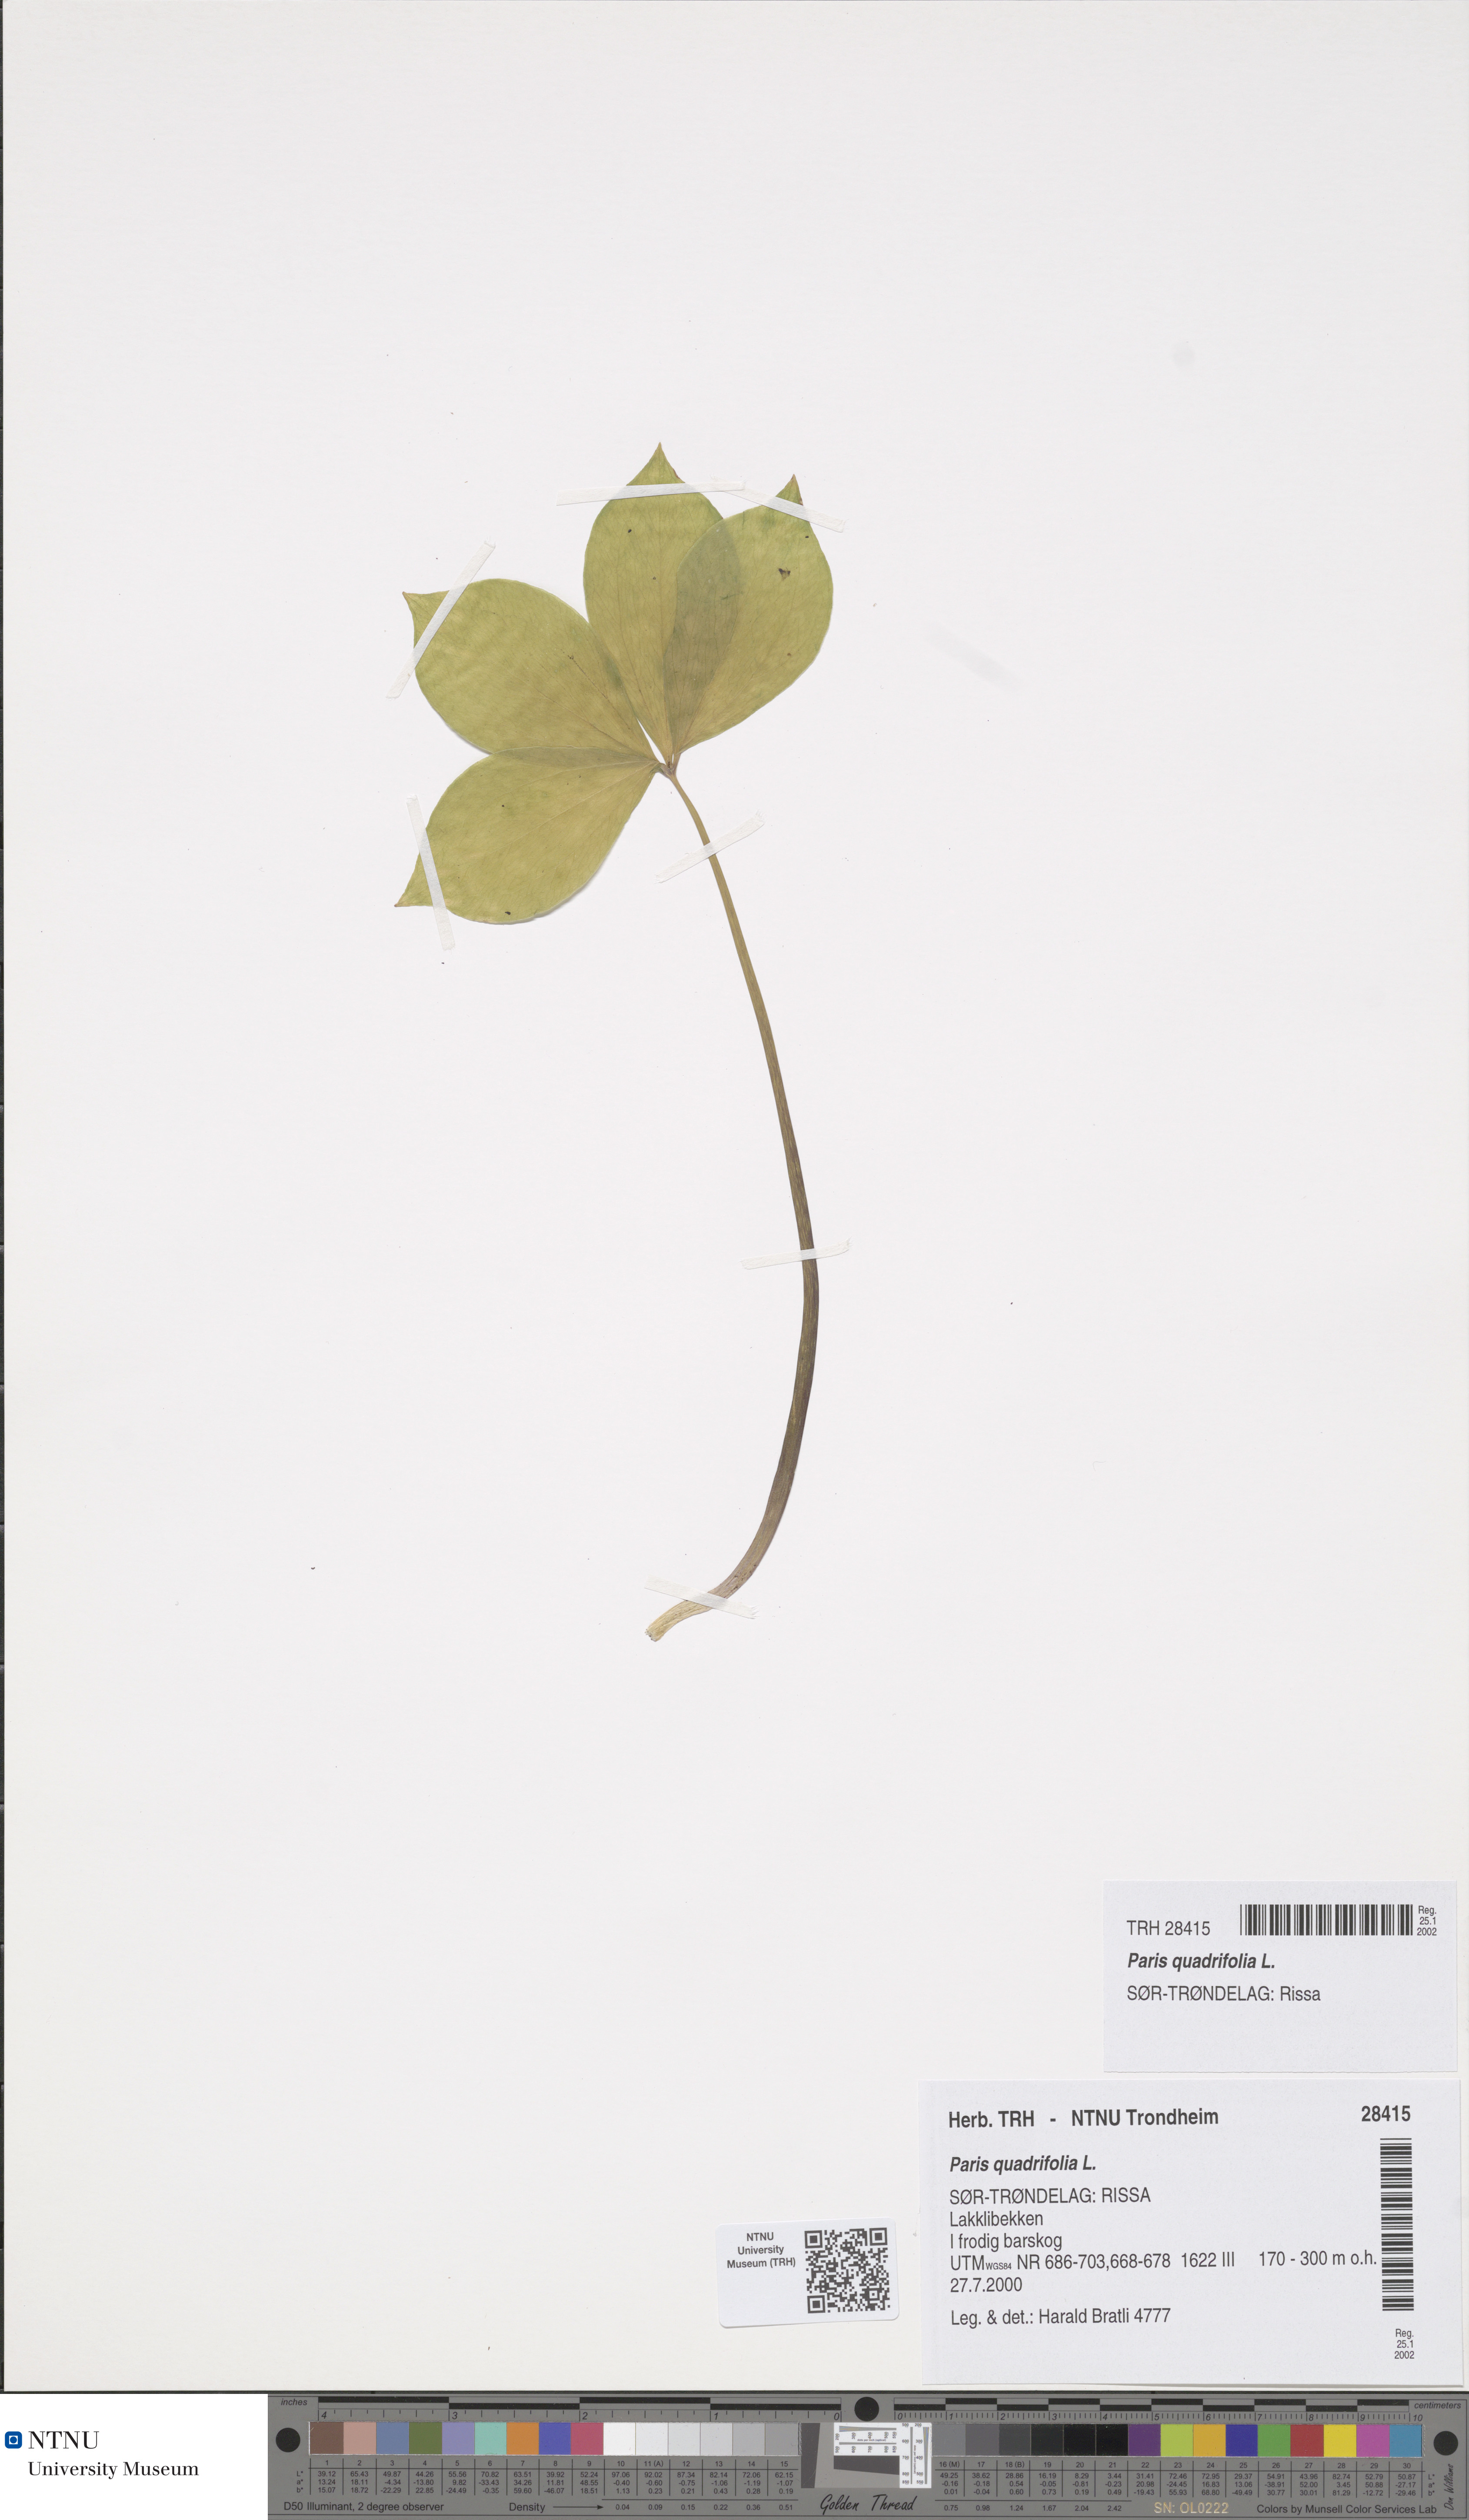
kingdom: Plantae
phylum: Tracheophyta
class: Liliopsida
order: Liliales
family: Melanthiaceae
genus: Paris
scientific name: Paris quadrifolia
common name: Herb-paris
